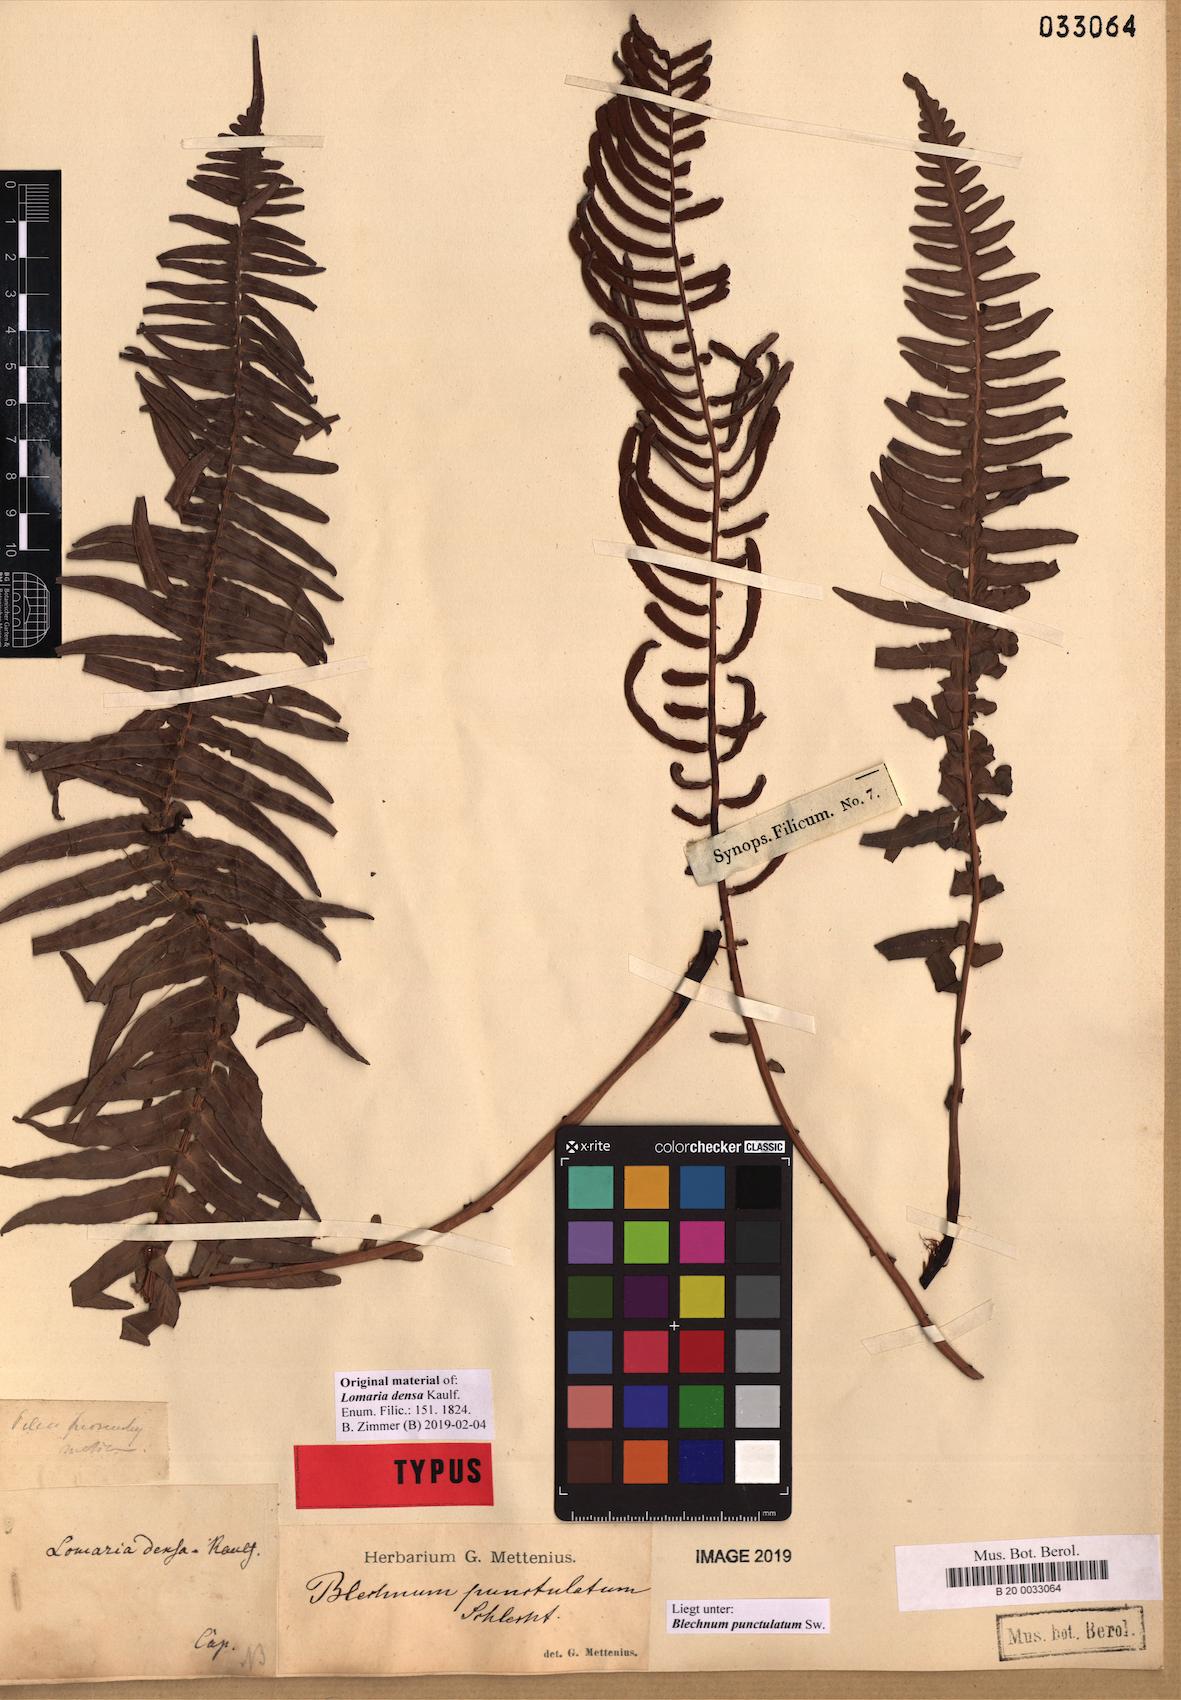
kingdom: Plantae
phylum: Tracheophyta
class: Polypodiopsida
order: Polypodiales
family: Blechnaceae
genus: Blechnum
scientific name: Blechnum punctulatum
